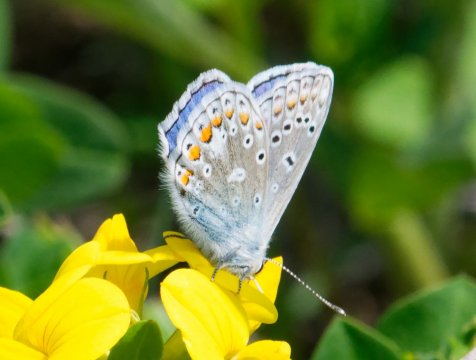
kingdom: Animalia
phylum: Arthropoda
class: Insecta
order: Lepidoptera
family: Lycaenidae
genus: Polyommatus
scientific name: Polyommatus icarus
